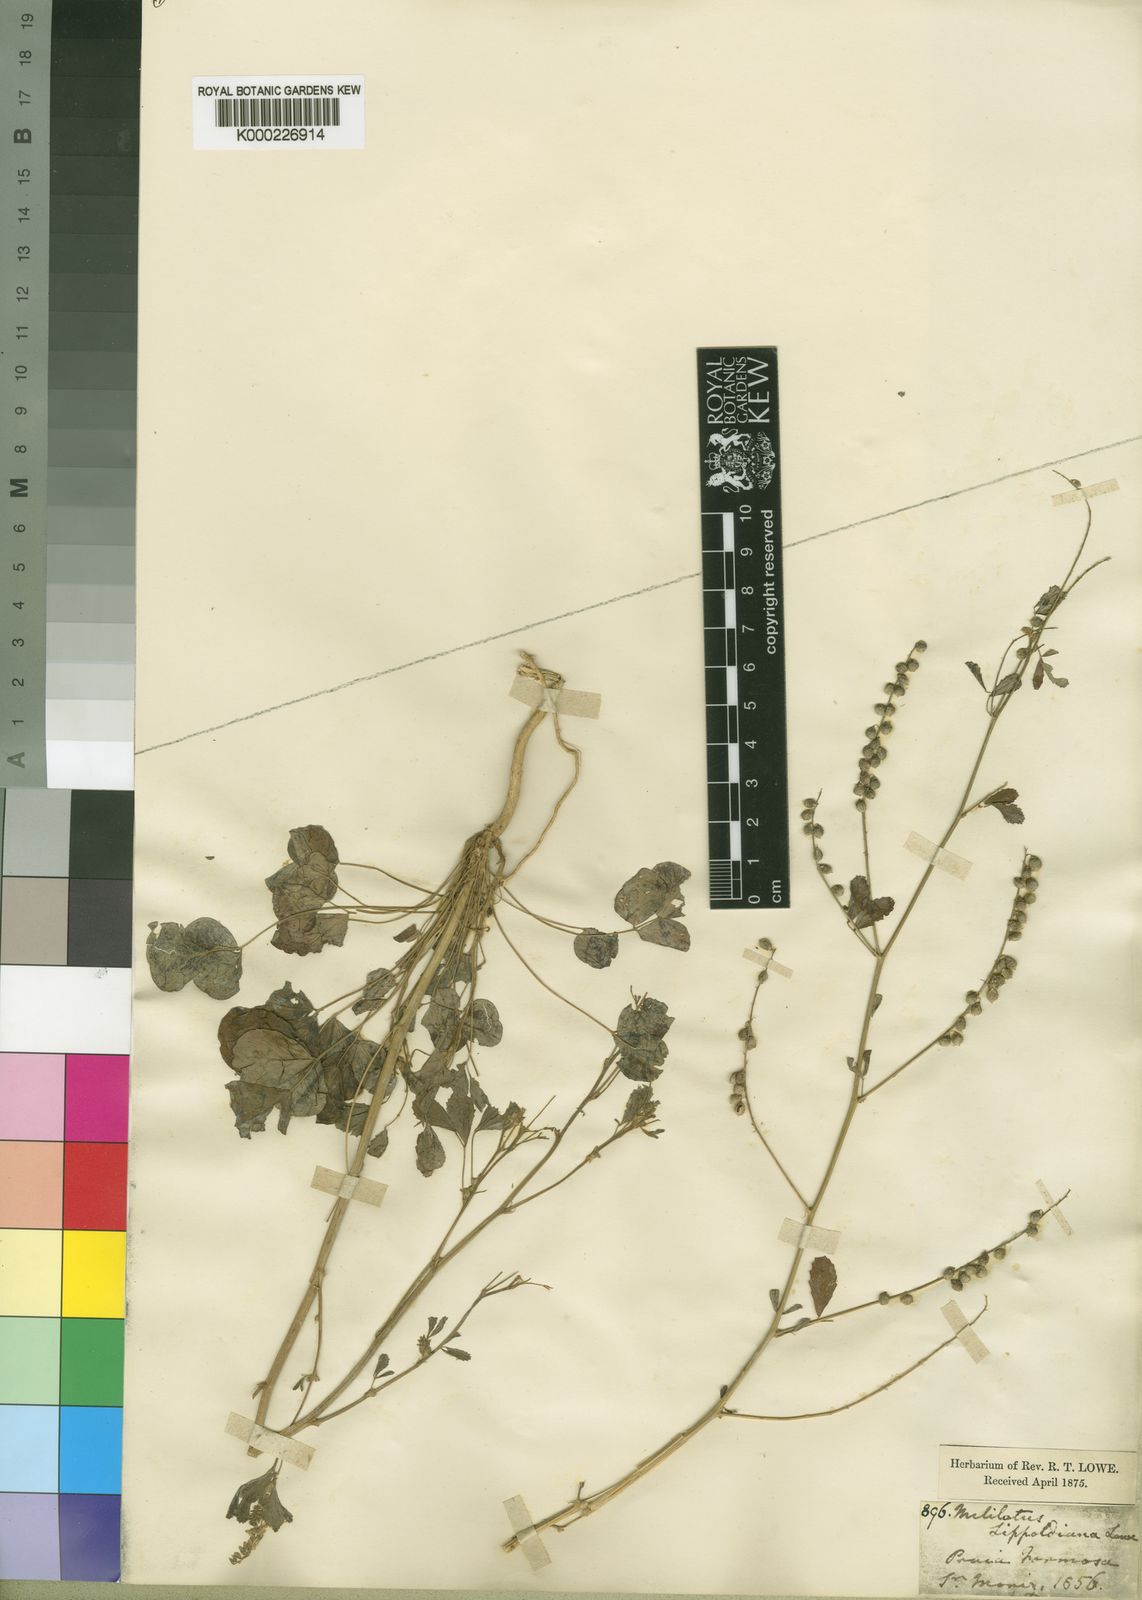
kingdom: Plantae
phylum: Tracheophyta
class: Magnoliopsida
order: Fabales
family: Fabaceae
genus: Melilotus
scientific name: Melilotus
